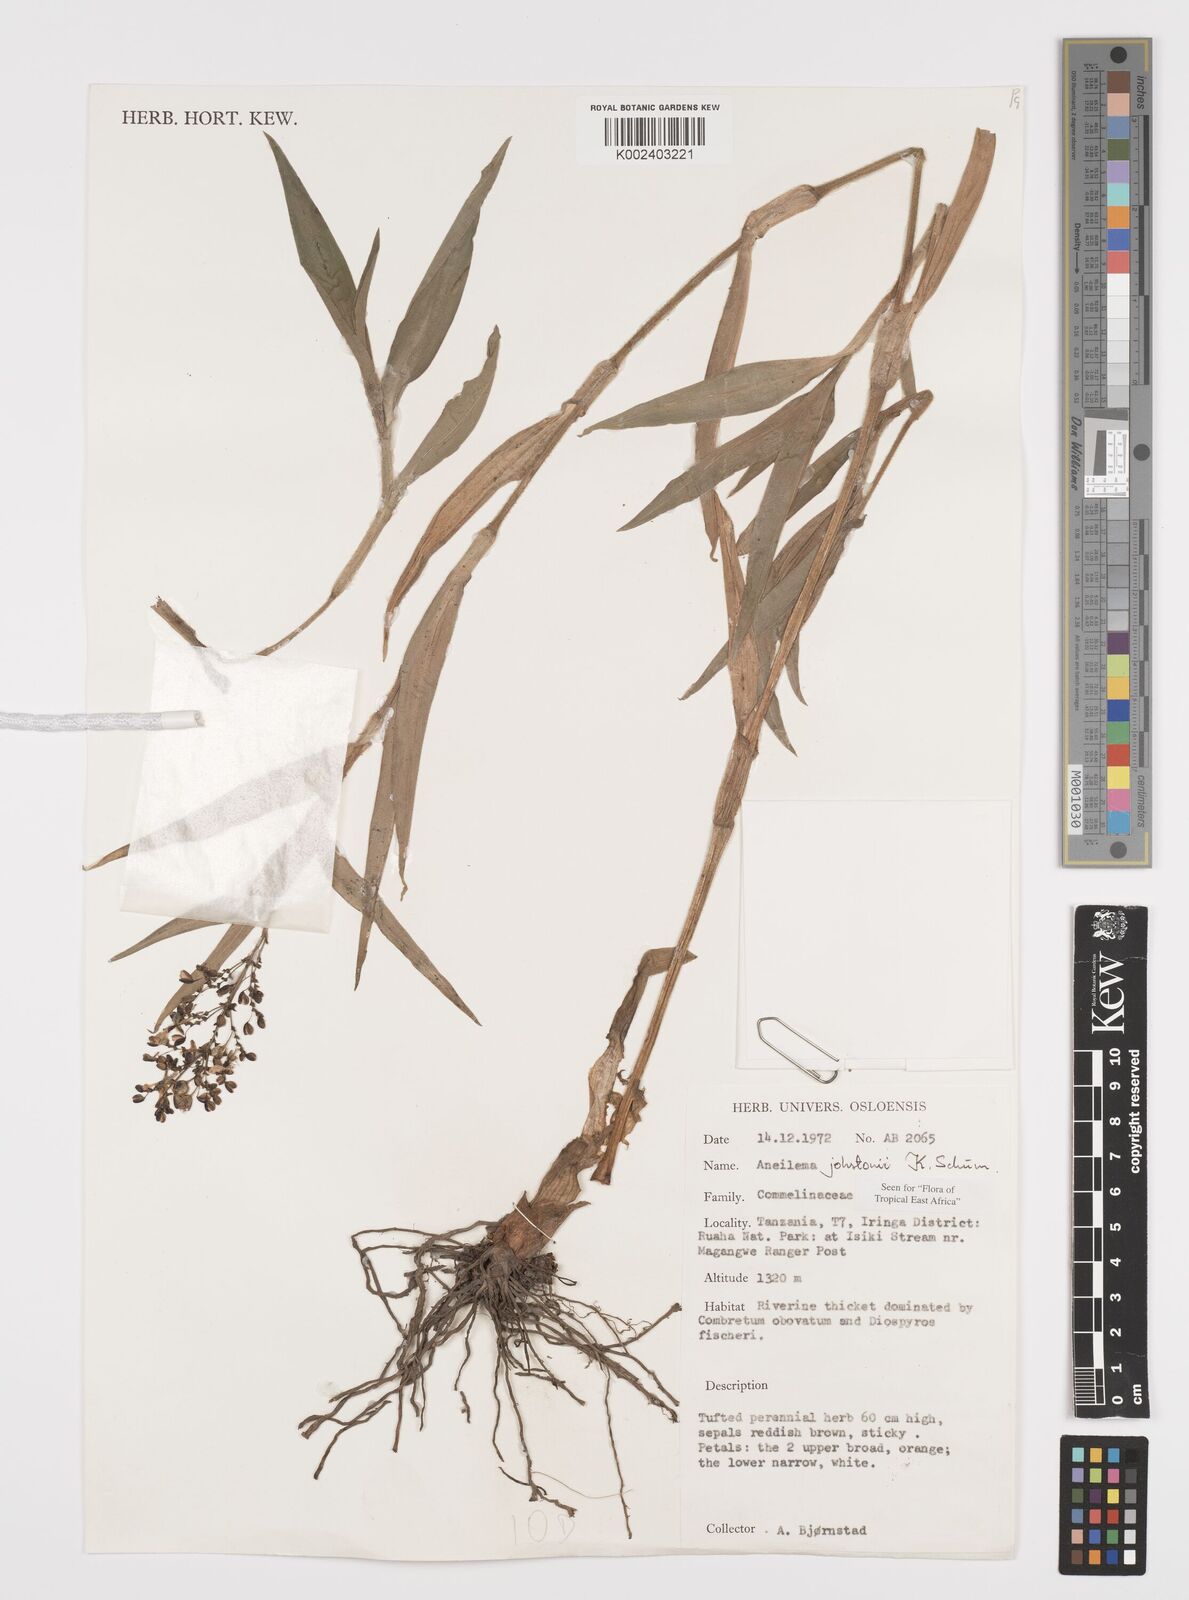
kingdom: Plantae
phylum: Tracheophyta
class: Liliopsida
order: Commelinales
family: Commelinaceae
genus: Aneilema
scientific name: Aneilema johnstonii
